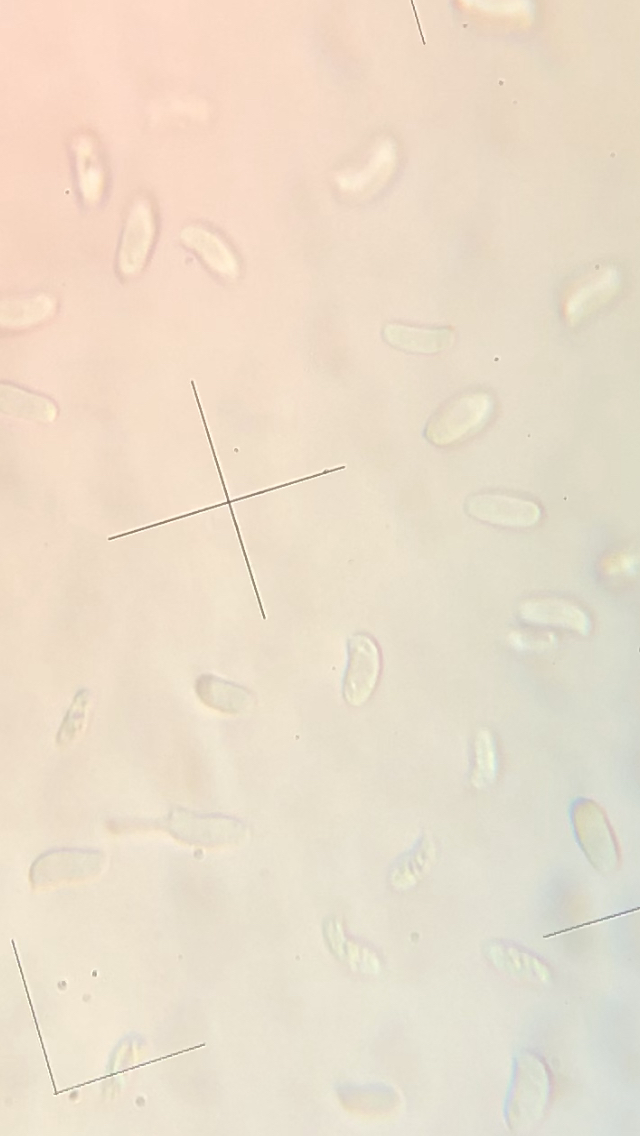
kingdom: Fungi
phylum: Basidiomycota
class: Agaricomycetes
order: Polyporales
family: Polyporaceae
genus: Trametes
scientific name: Trametes ochracea
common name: bæltet læderporesvamp
